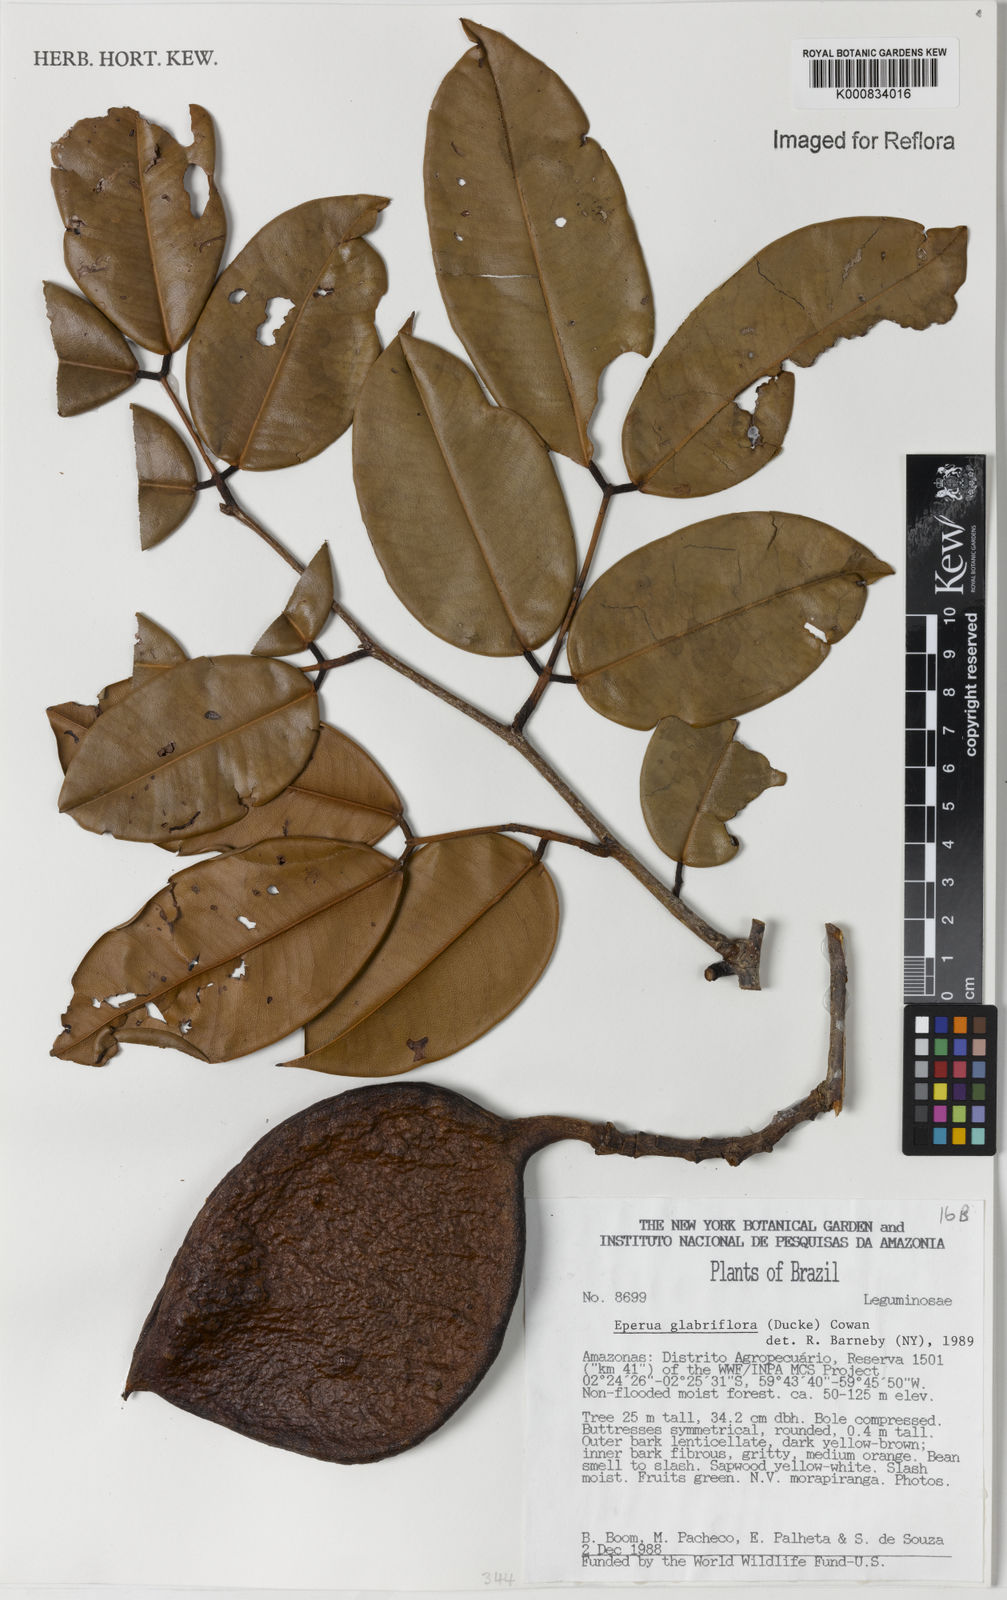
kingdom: Plantae
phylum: Tracheophyta
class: Magnoliopsida
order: Fabales
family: Fabaceae
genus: Eperua
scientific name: Eperua glabriflora
